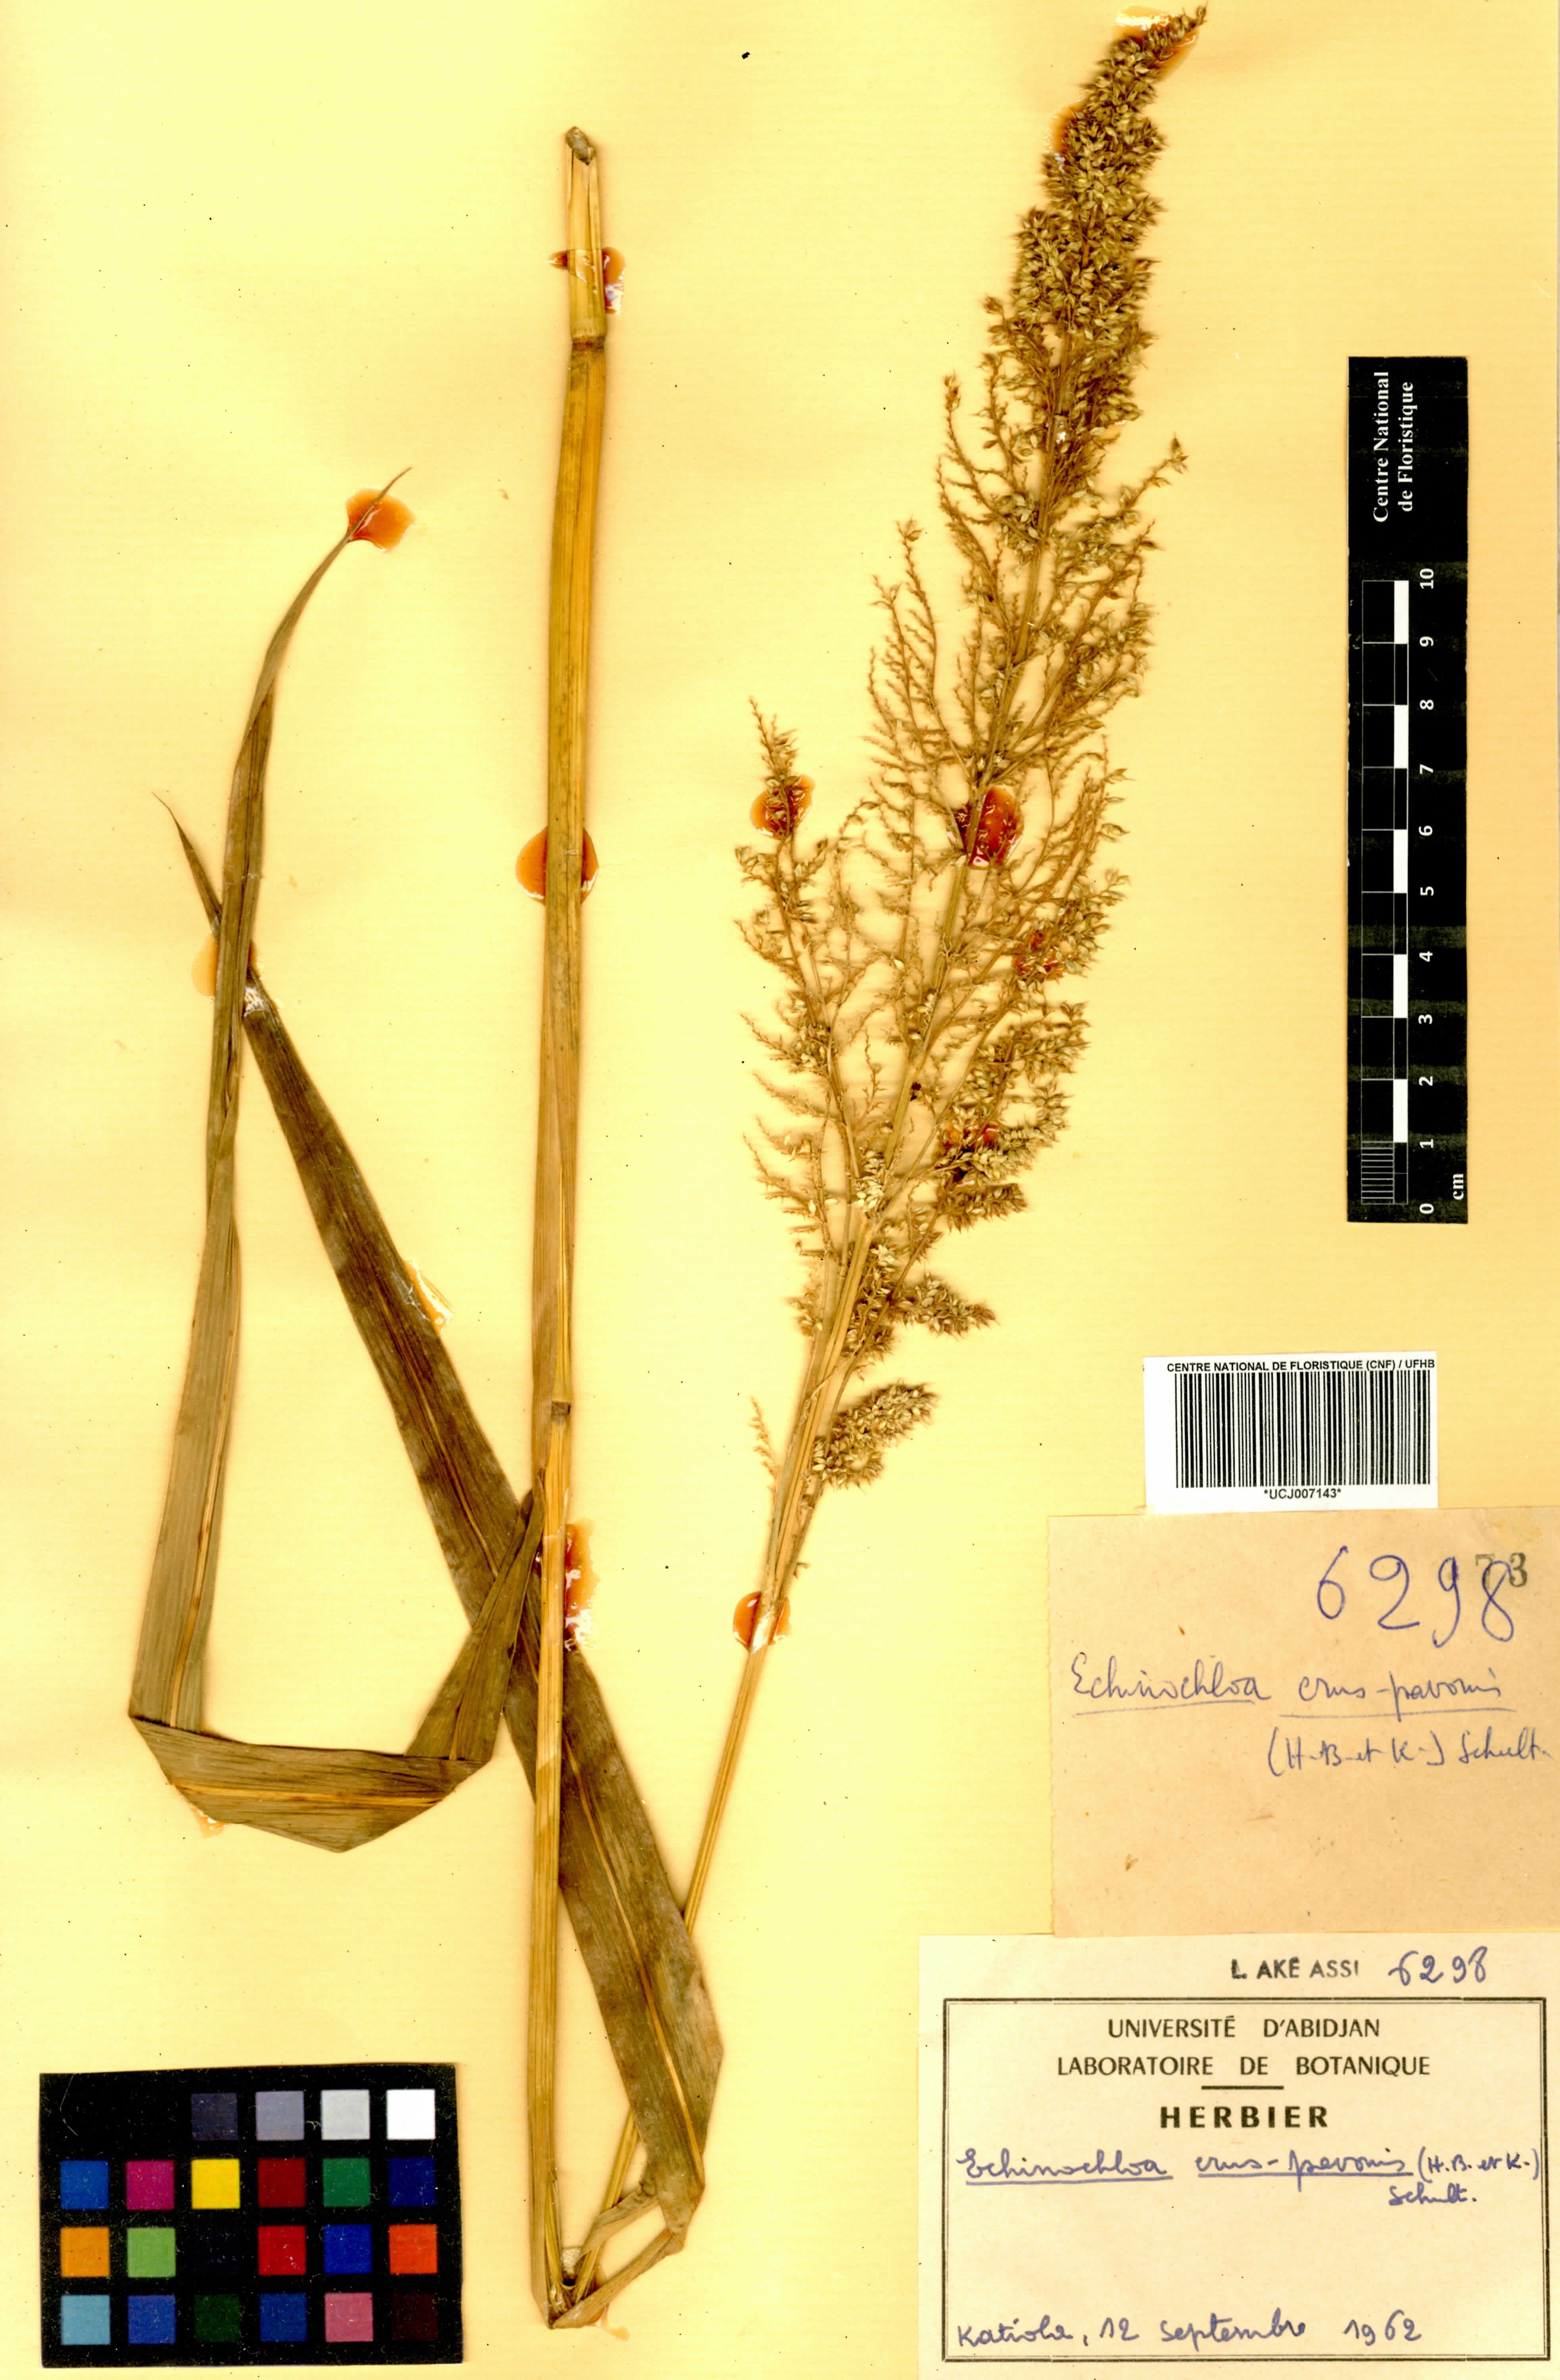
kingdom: Plantae
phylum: Tracheophyta
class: Liliopsida
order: Poales
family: Poaceae
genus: Echinochloa
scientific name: Echinochloa crus-pavonis
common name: Gulf cockspur grass
